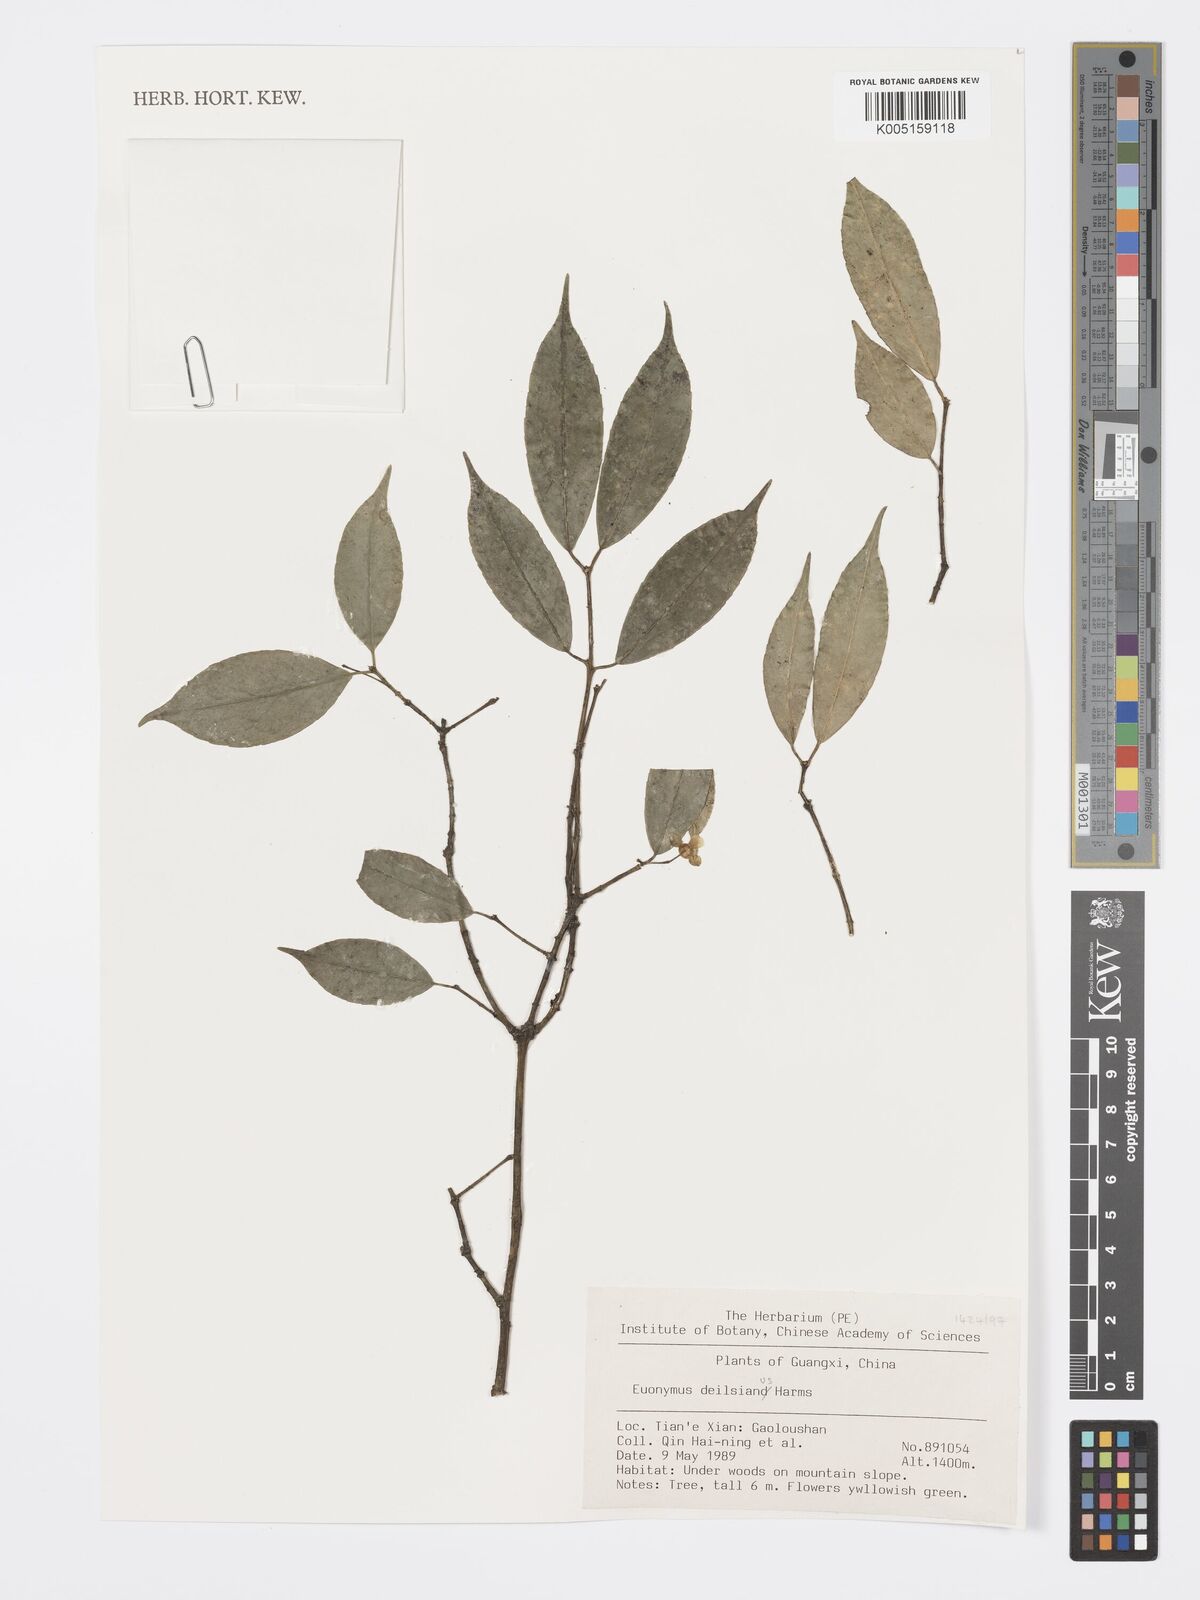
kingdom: Plantae
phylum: Tracheophyta
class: Magnoliopsida
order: Celastrales
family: Celastraceae
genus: Euonymus
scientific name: Euonymus dielsianus
